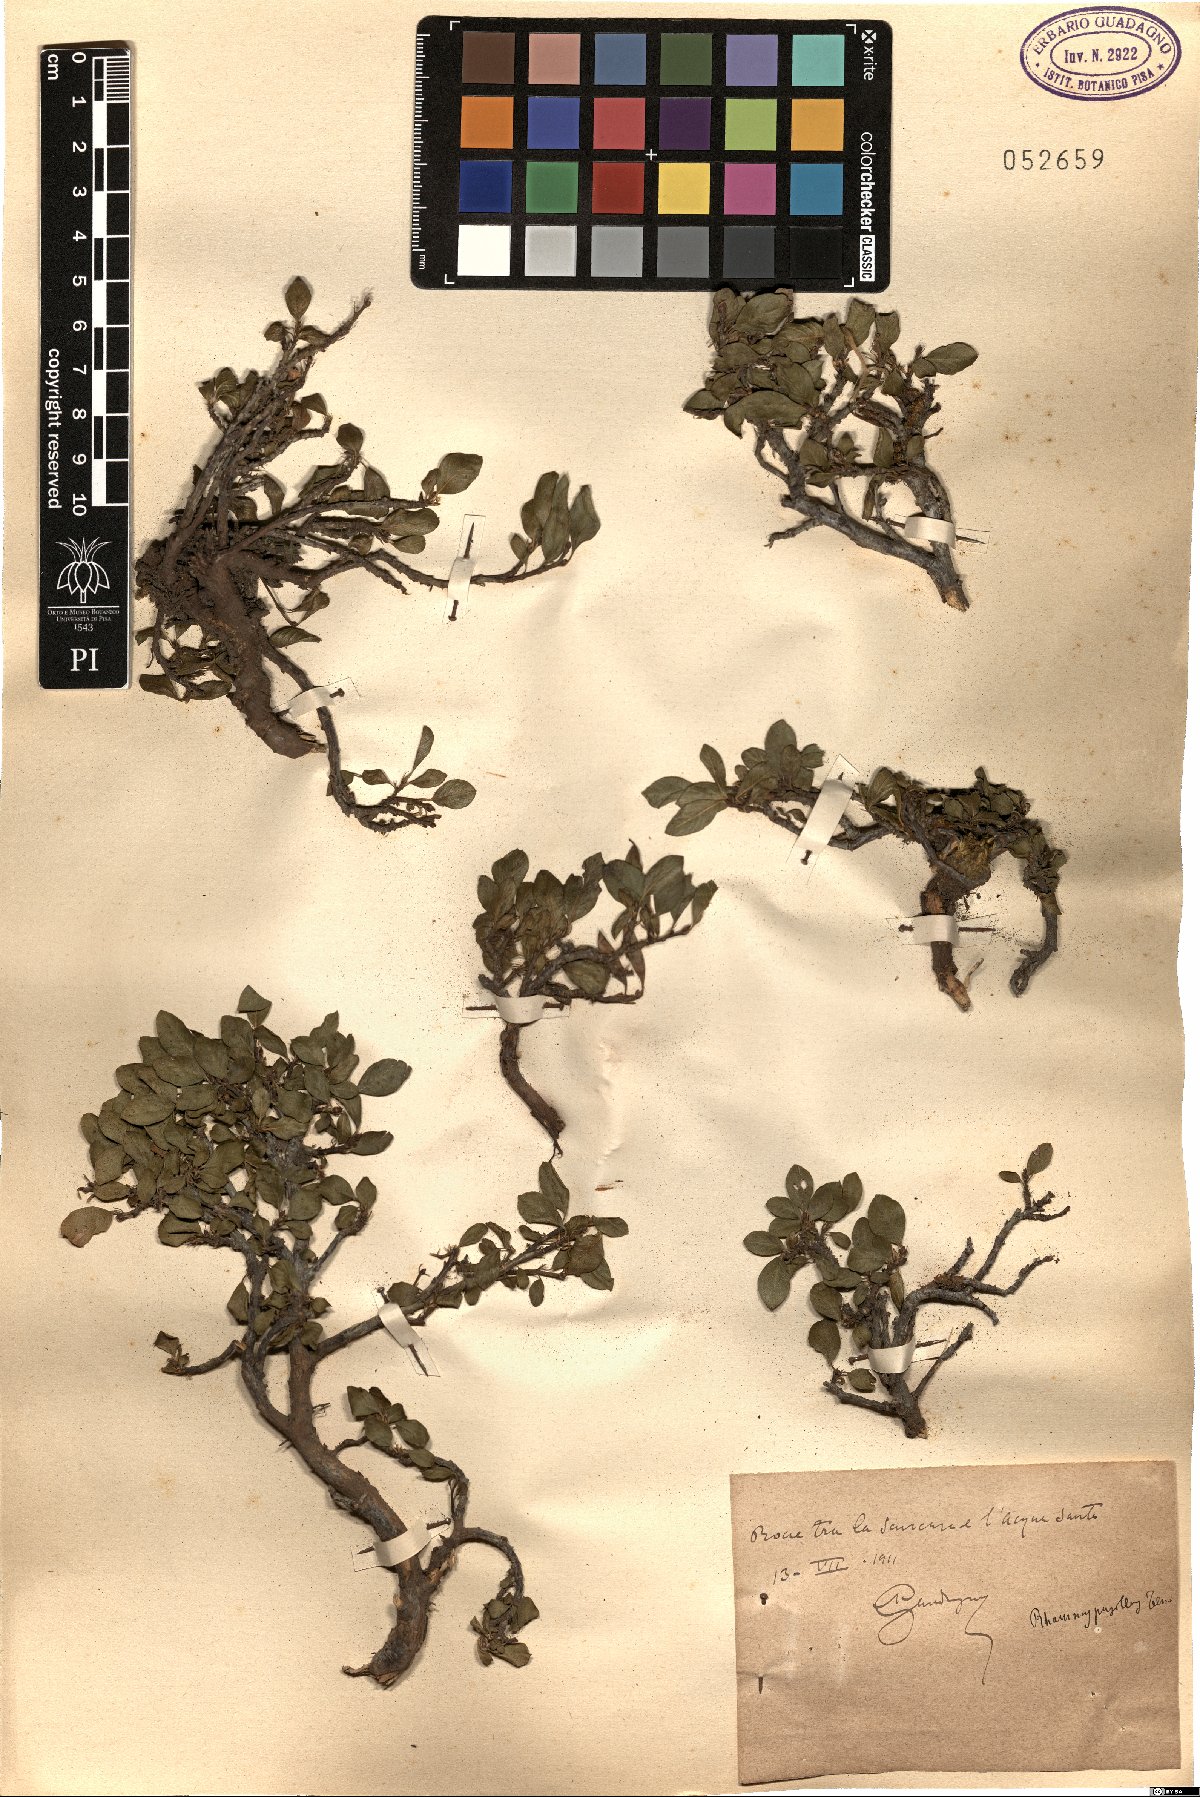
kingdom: Plantae
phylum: Tracheophyta
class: Magnoliopsida
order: Rosales
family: Rhamnaceae
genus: Atadinus
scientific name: Atadinus pumilus
